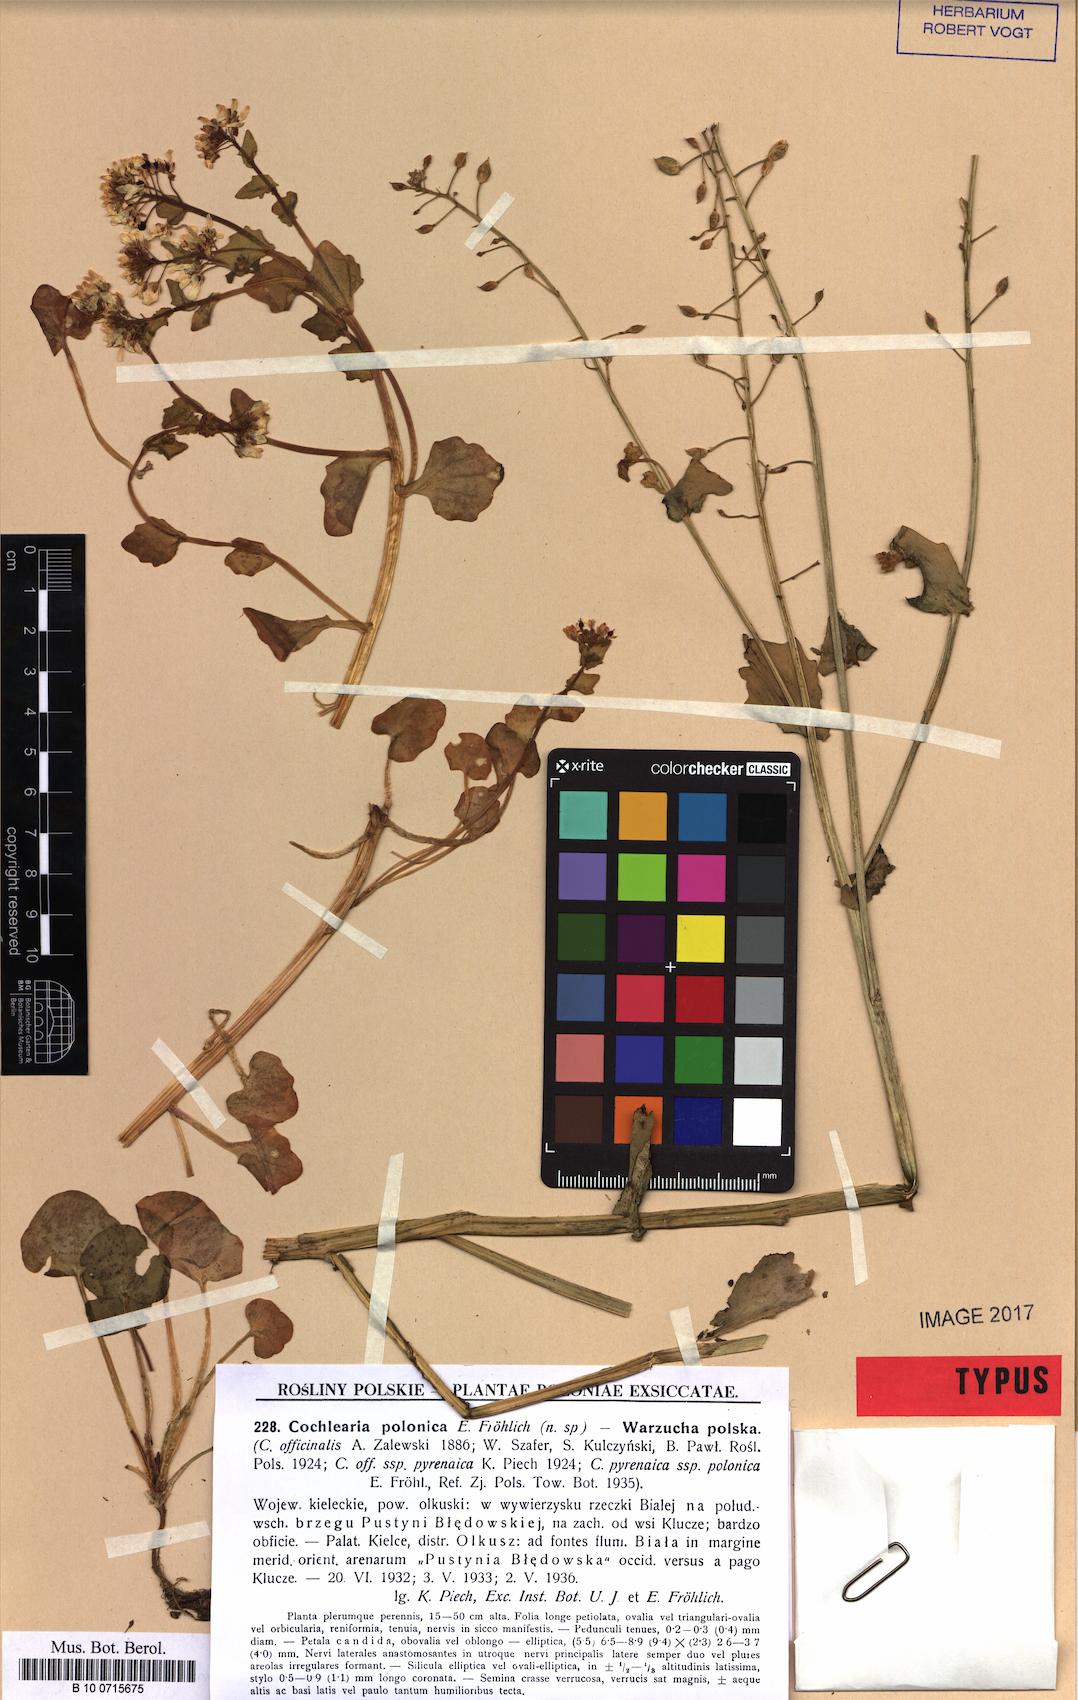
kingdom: Plantae
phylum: Tracheophyta
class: Magnoliopsida
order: Brassicales
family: Brassicaceae
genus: Cochlearia
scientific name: Cochlearia polonica
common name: Polish scurvy-grass
